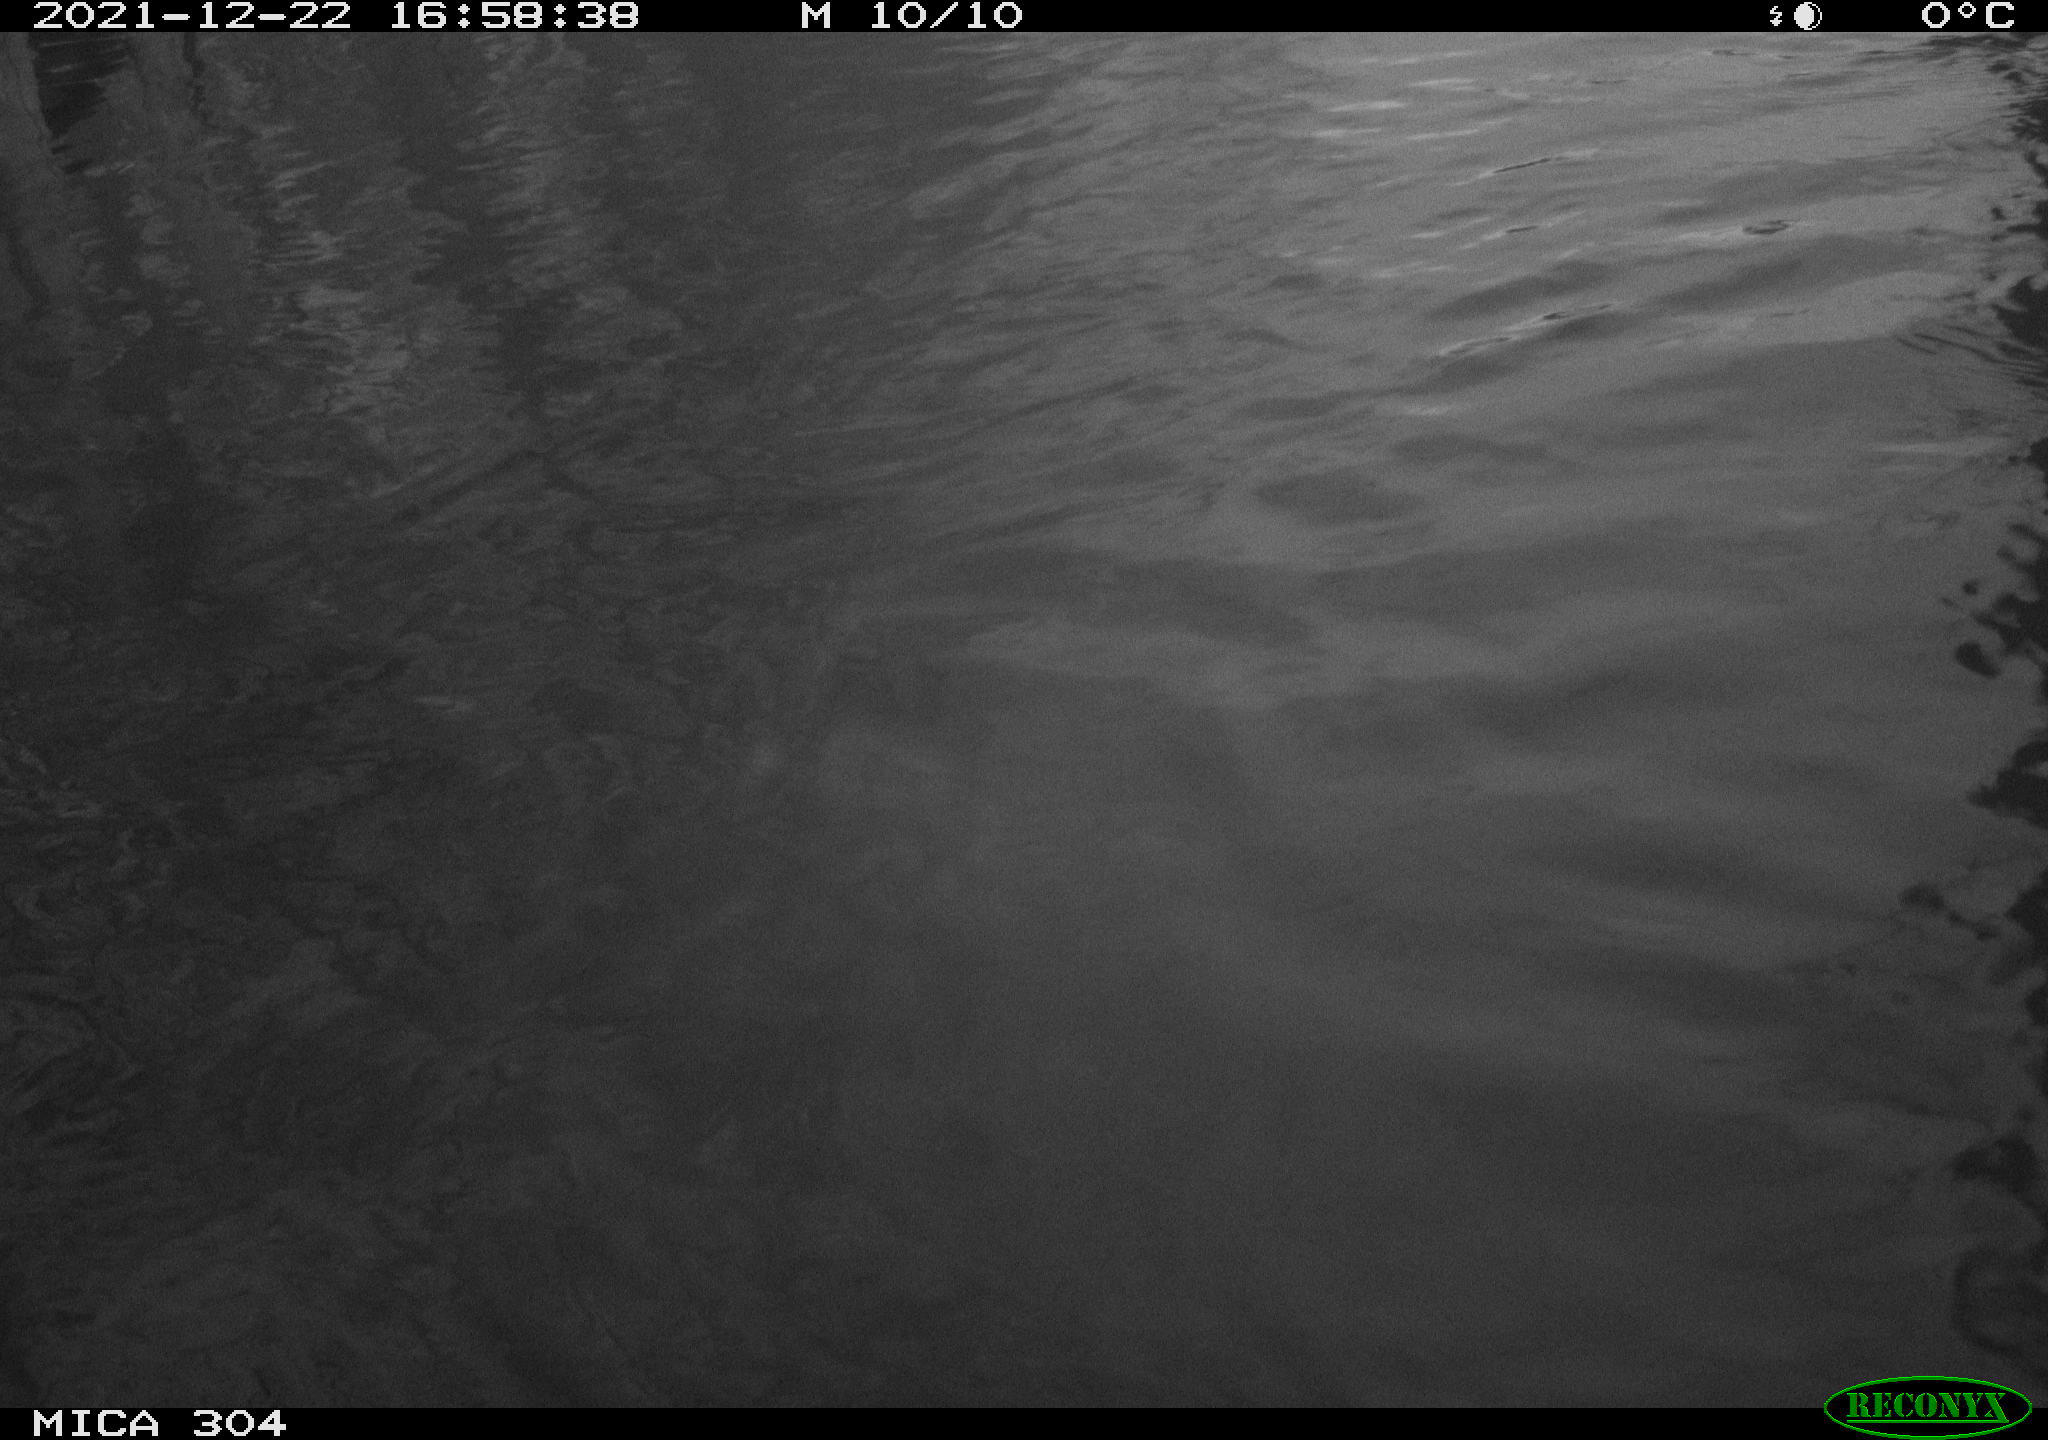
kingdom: Animalia
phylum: Chordata
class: Aves
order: Anseriformes
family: Anatidae
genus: Anas
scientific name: Anas platyrhynchos
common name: Mallard
